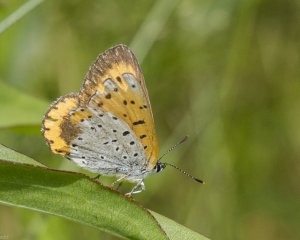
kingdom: Animalia
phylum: Arthropoda
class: Insecta
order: Lepidoptera
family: Sesiidae
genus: Sesia
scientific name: Sesia Lycaena hyllus
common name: Bronze Copper
